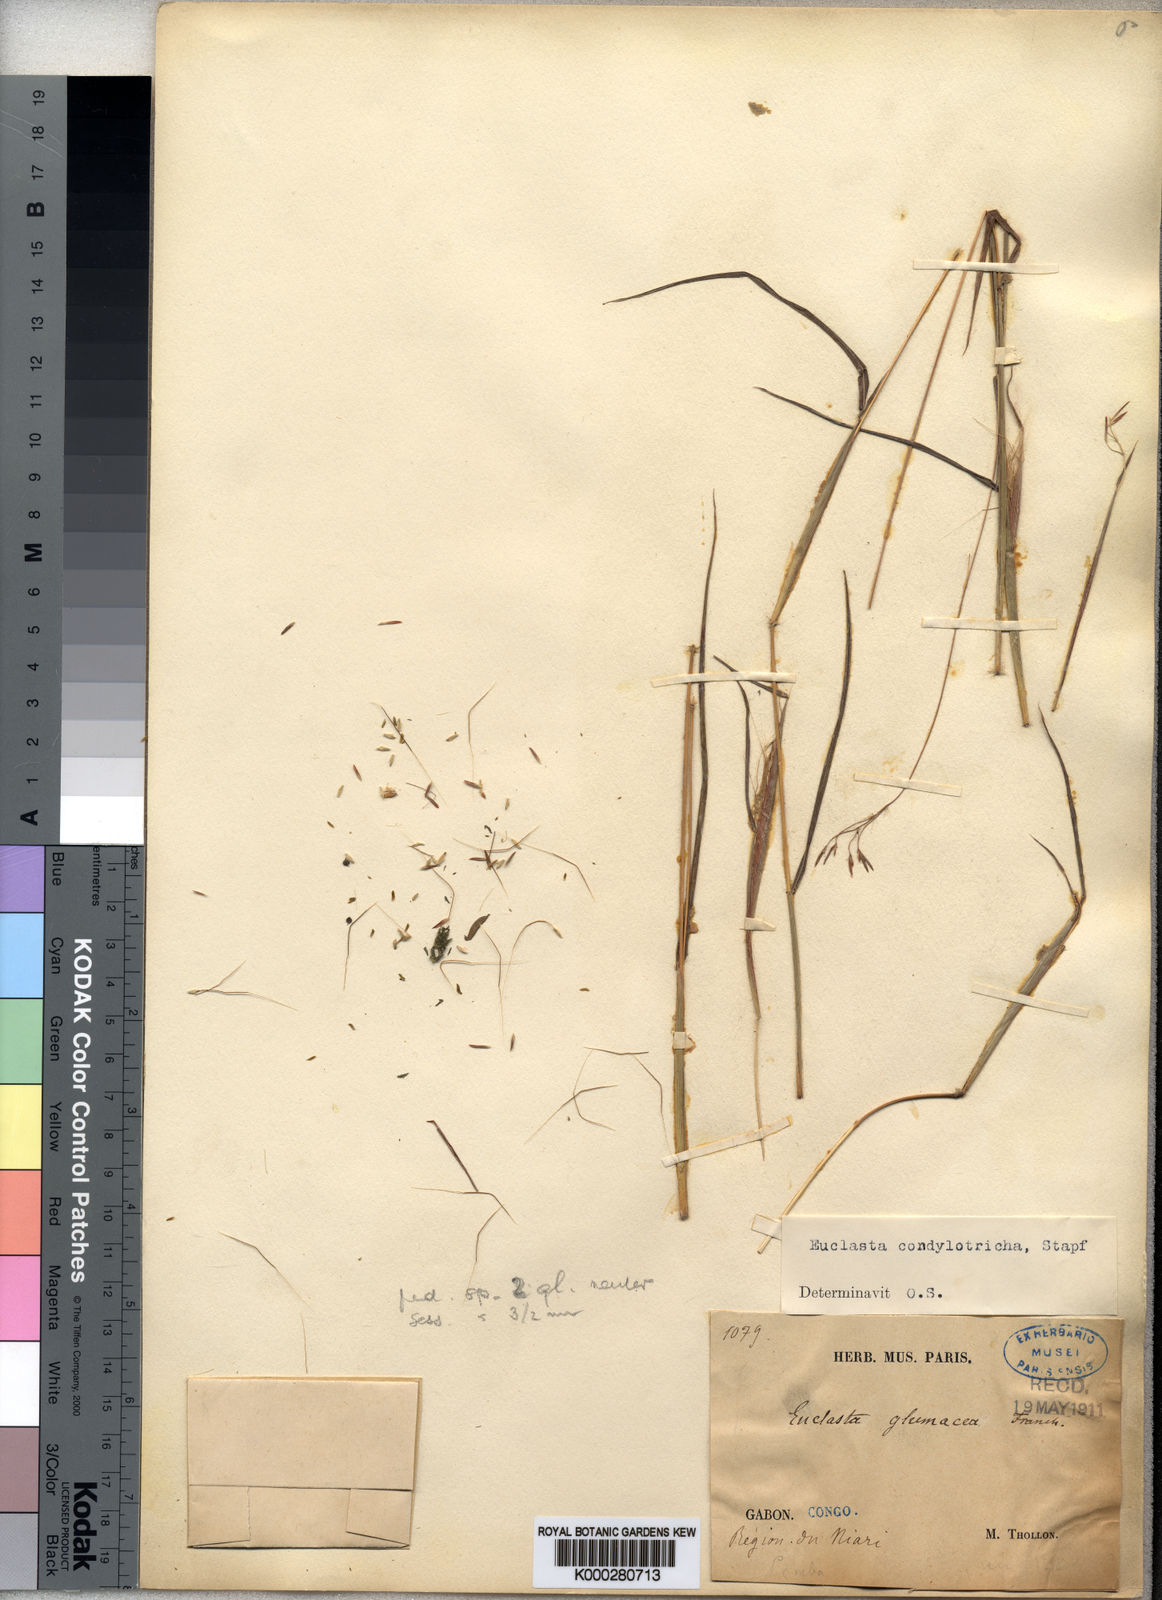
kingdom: Plantae
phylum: Tracheophyta
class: Liliopsida
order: Poales
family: Poaceae
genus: Euclasta
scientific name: Euclasta condylotricha
